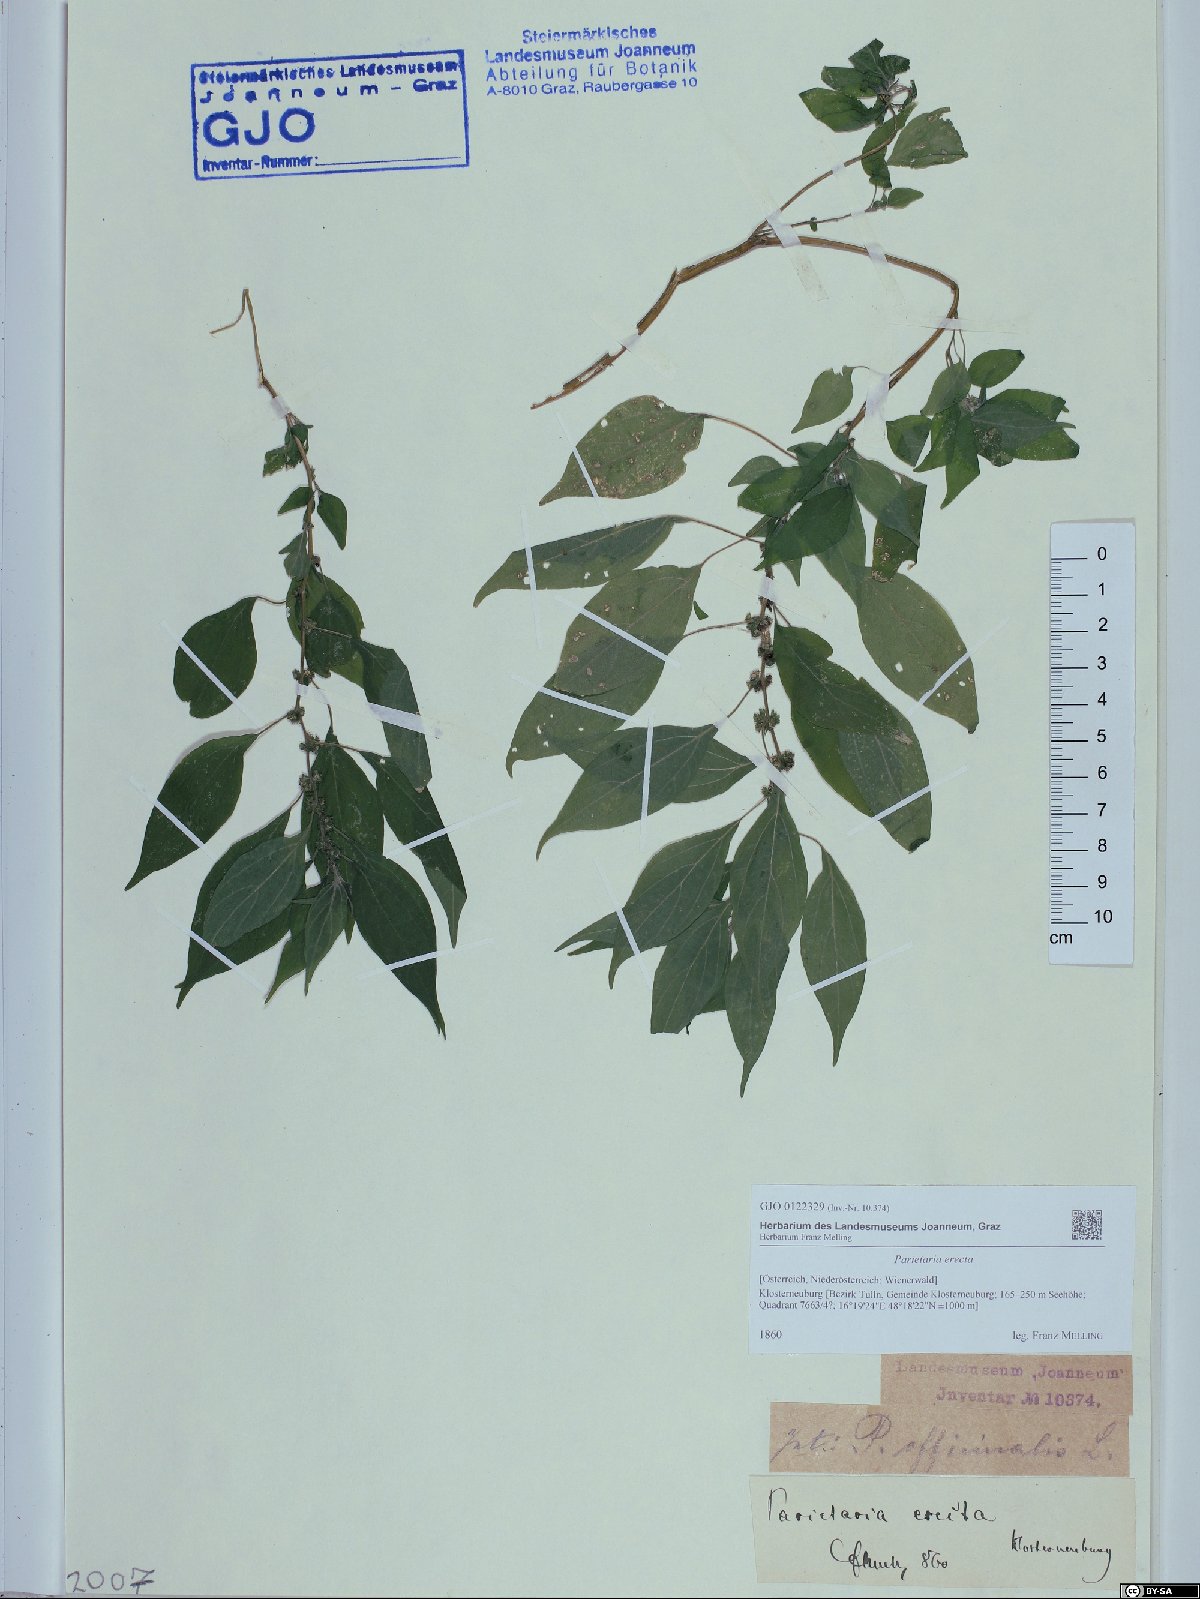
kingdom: Plantae
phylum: Tracheophyta
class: Magnoliopsida
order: Rosales
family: Urticaceae
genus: Parietaria
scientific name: Parietaria officinalis
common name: Eastern pellitory-of-the-wall
